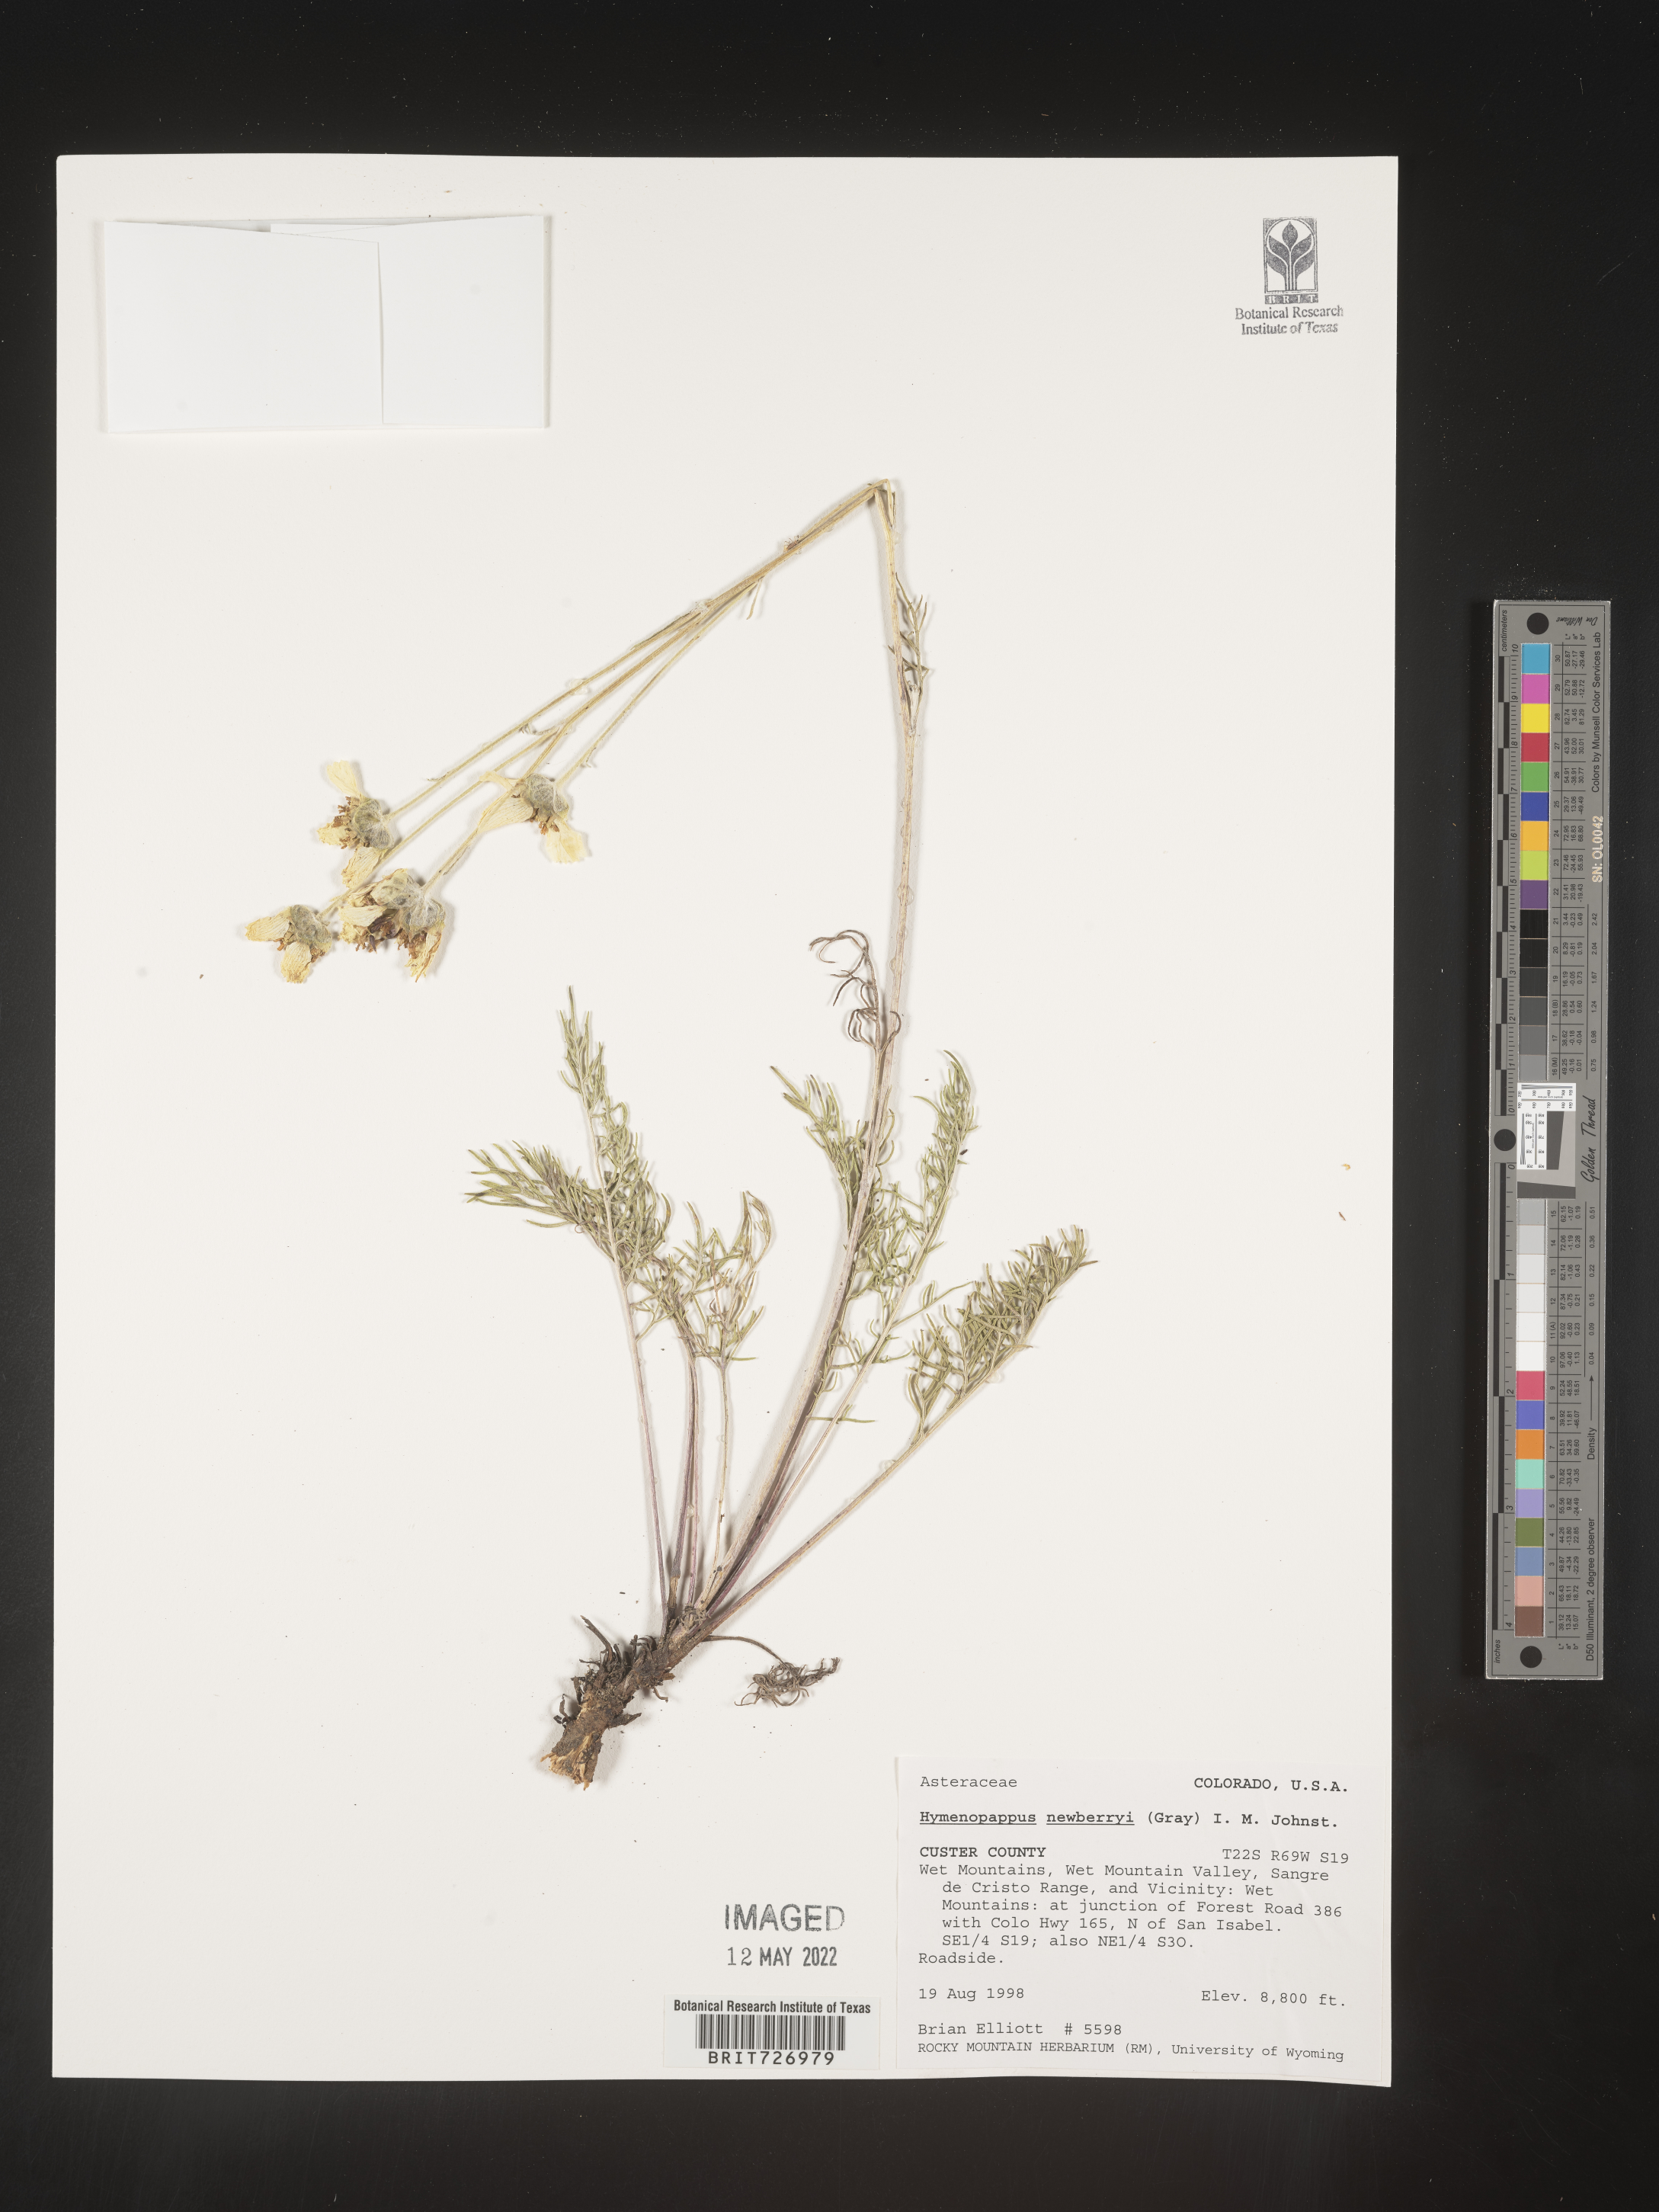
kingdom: Plantae
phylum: Tracheophyta
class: Magnoliopsida
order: Asterales
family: Asteraceae
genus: Hymenopappus
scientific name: Hymenopappus newberryi
